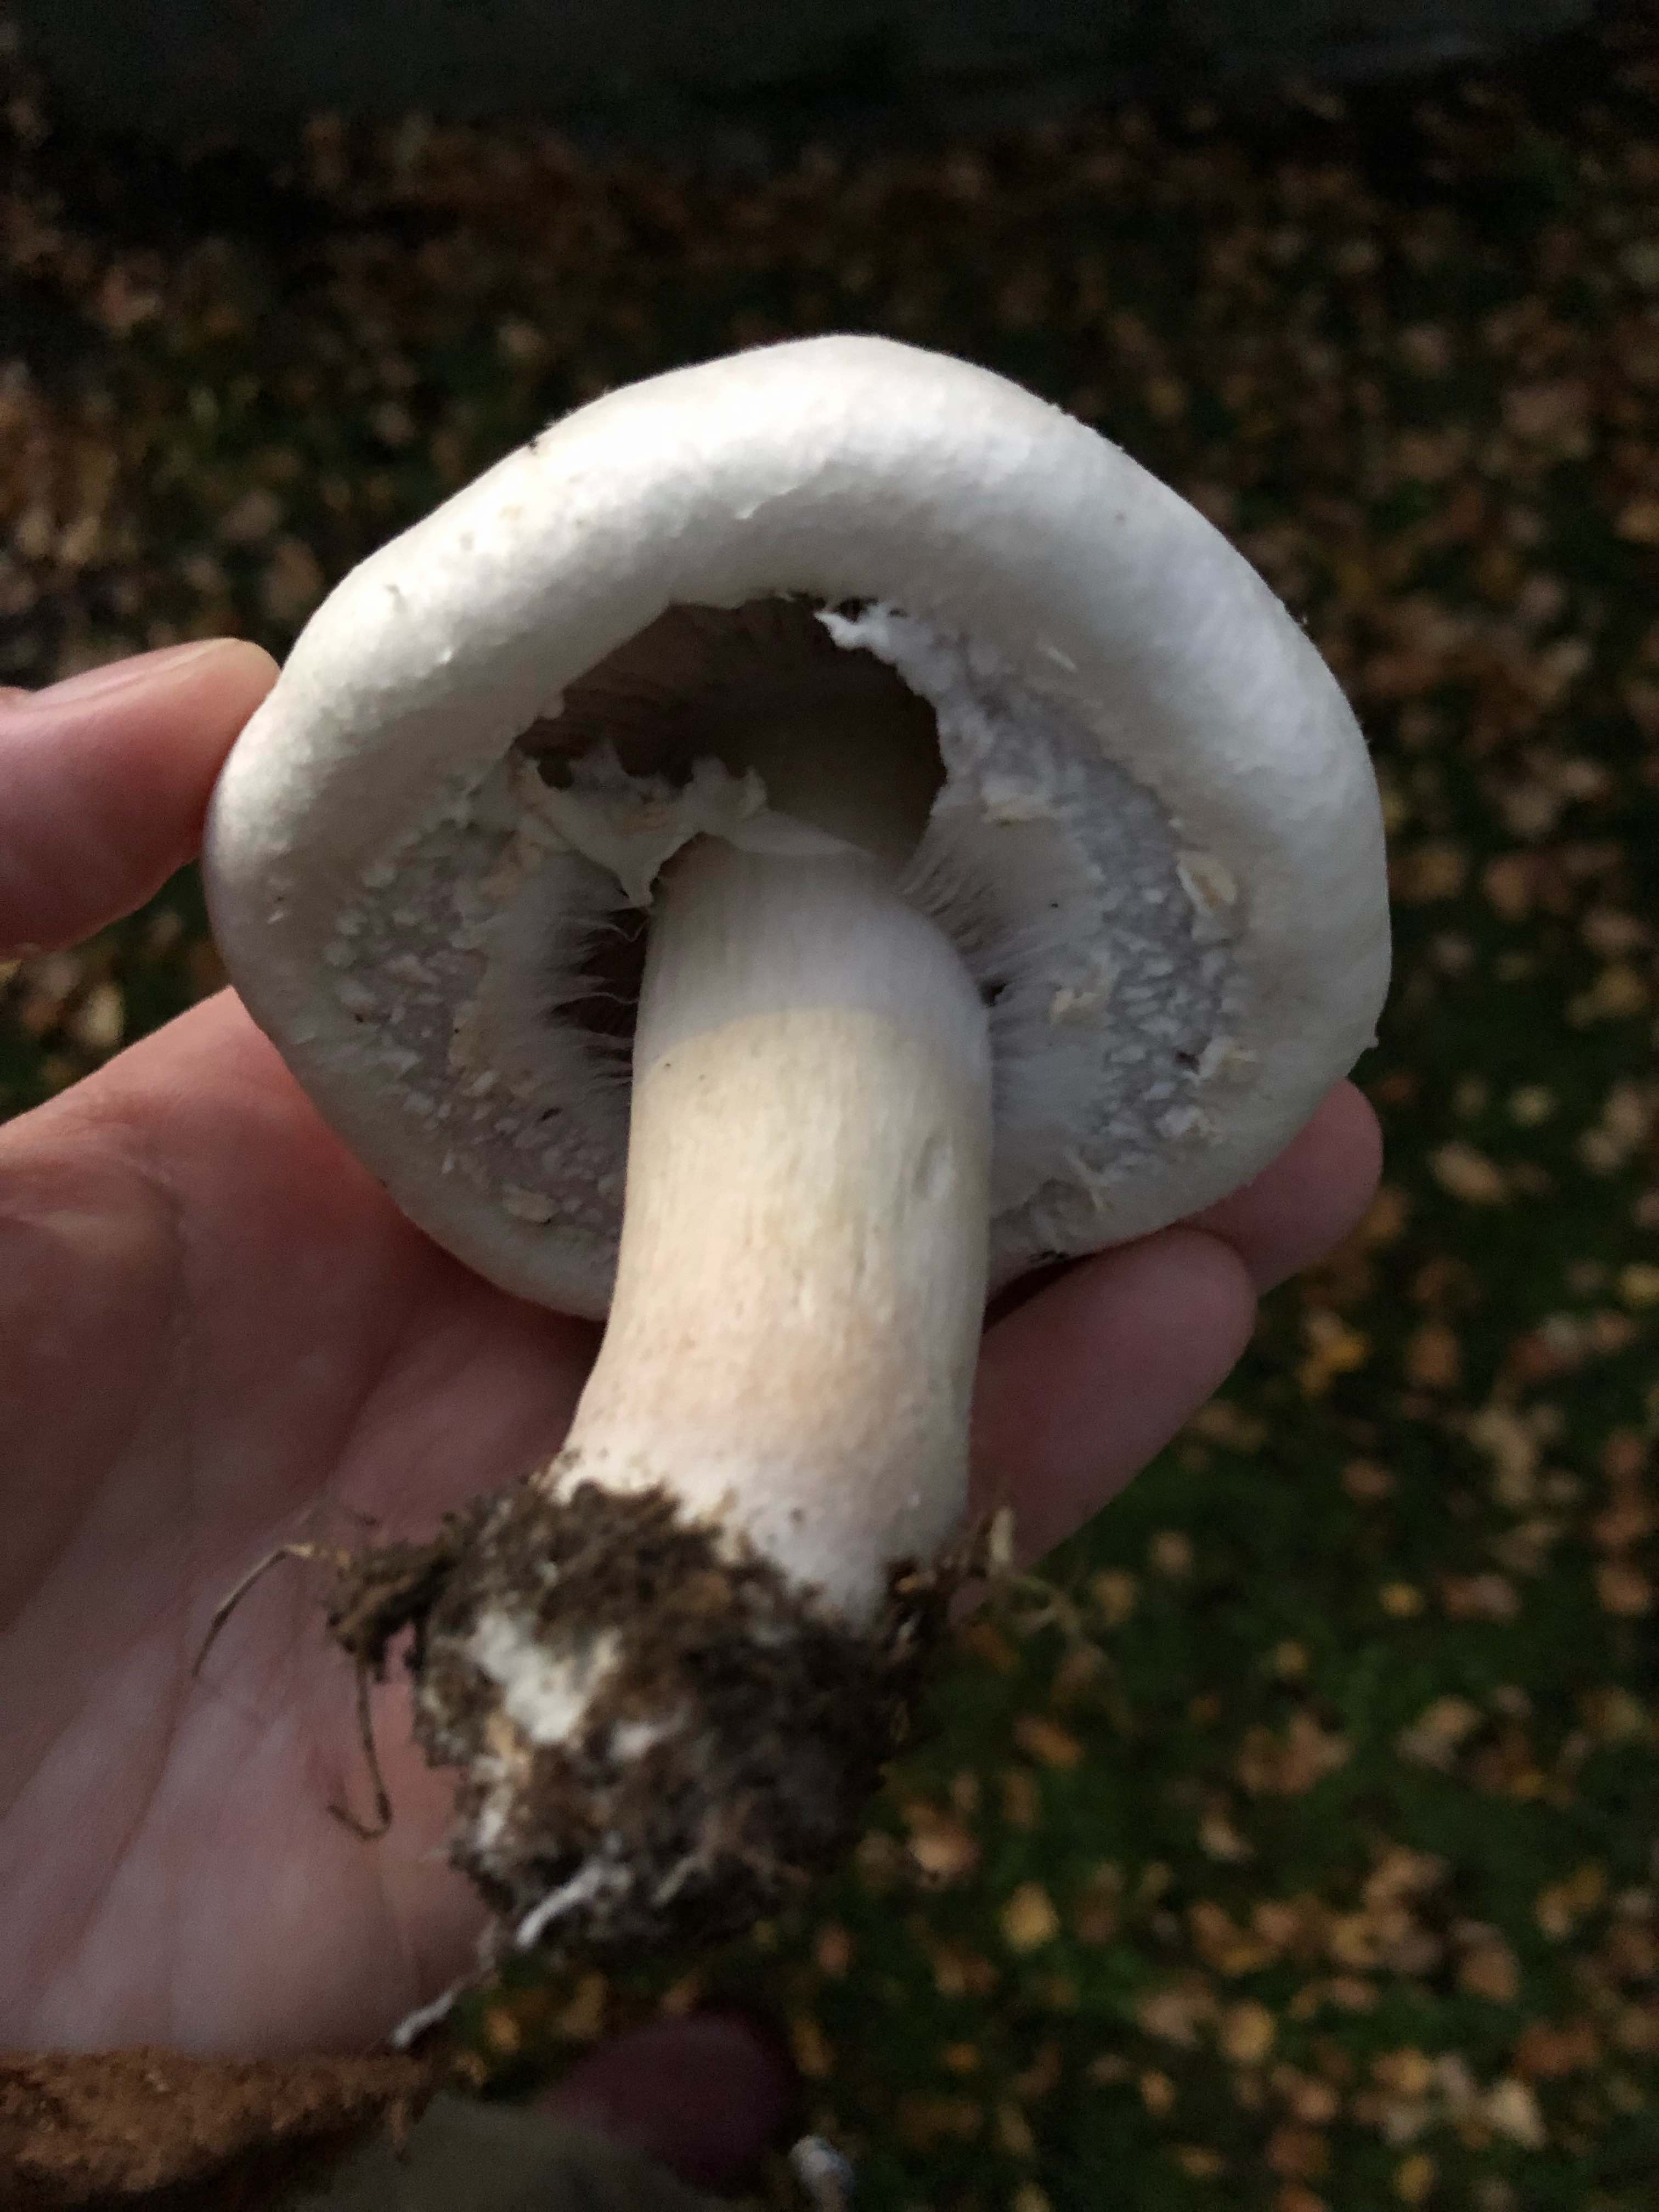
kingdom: Fungi
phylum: Basidiomycota
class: Agaricomycetes
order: Agaricales
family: Agaricaceae
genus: Agaricus
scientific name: Agaricus arvensis
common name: ager-champignon
